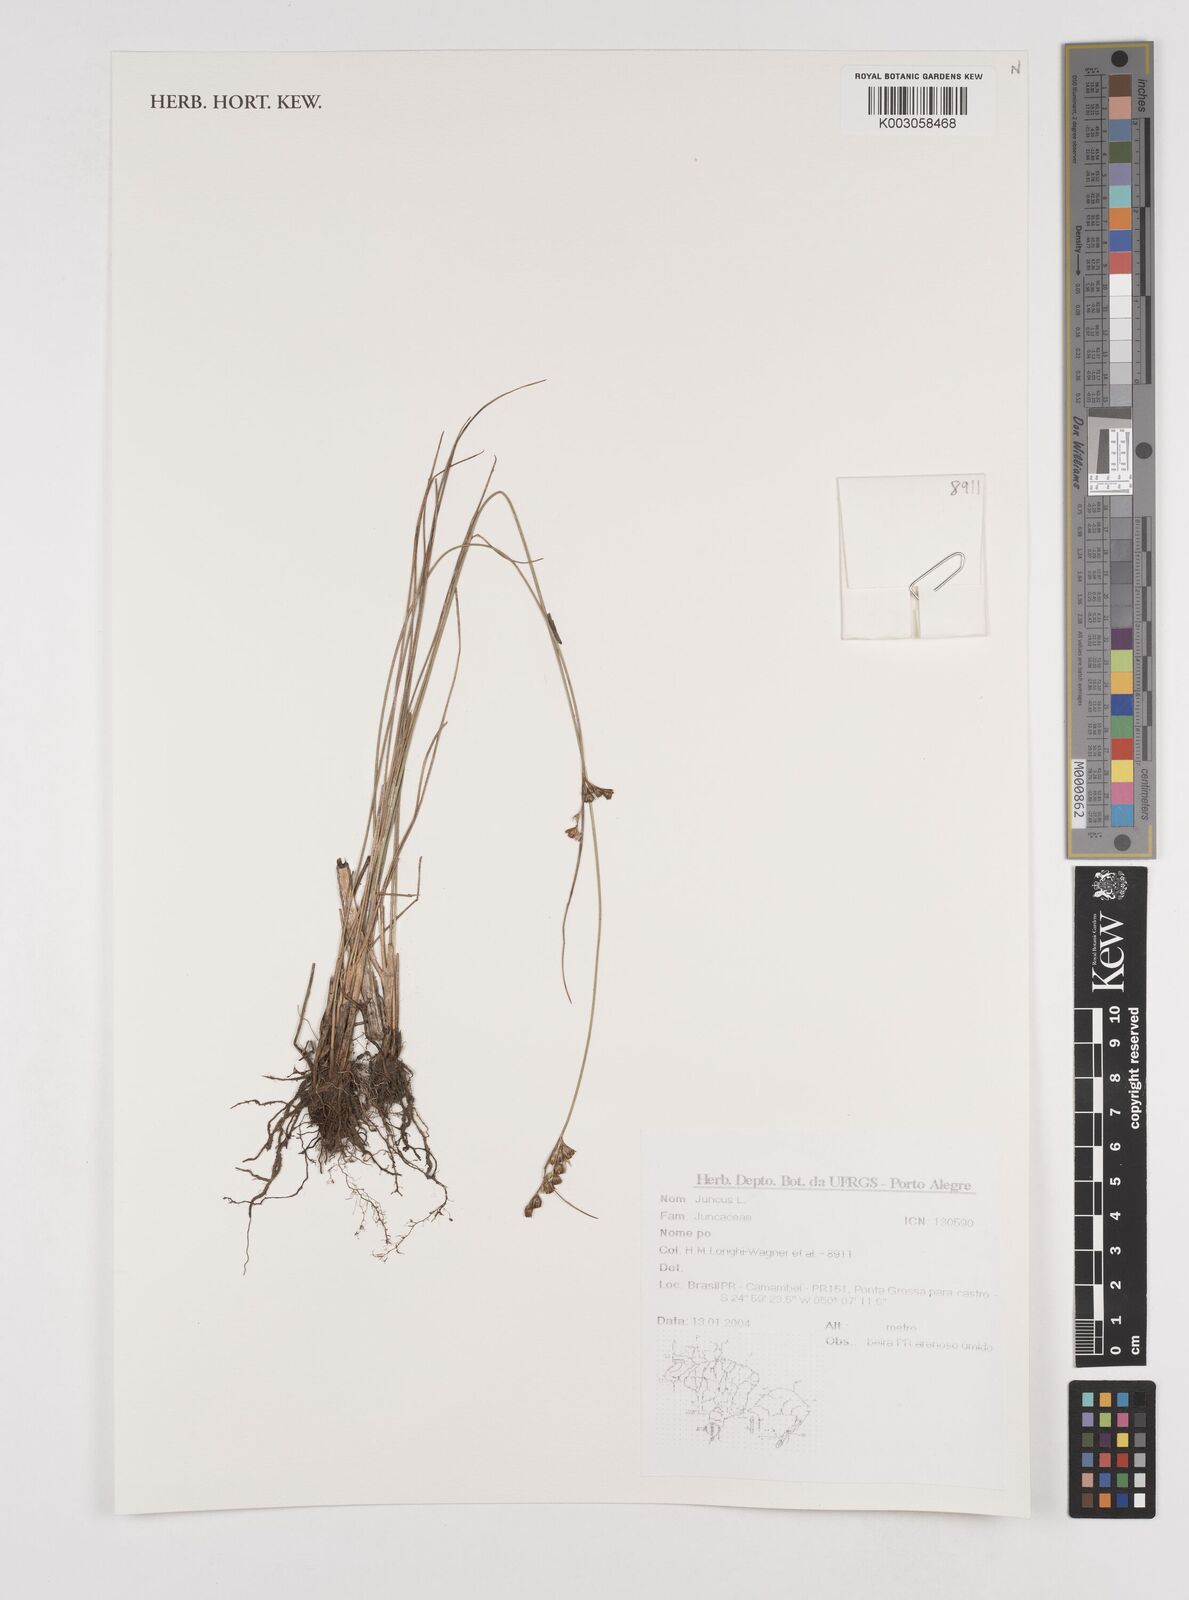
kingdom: Plantae
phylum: Tracheophyta
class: Liliopsida
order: Poales
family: Juncaceae
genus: Juncus
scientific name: Juncus
